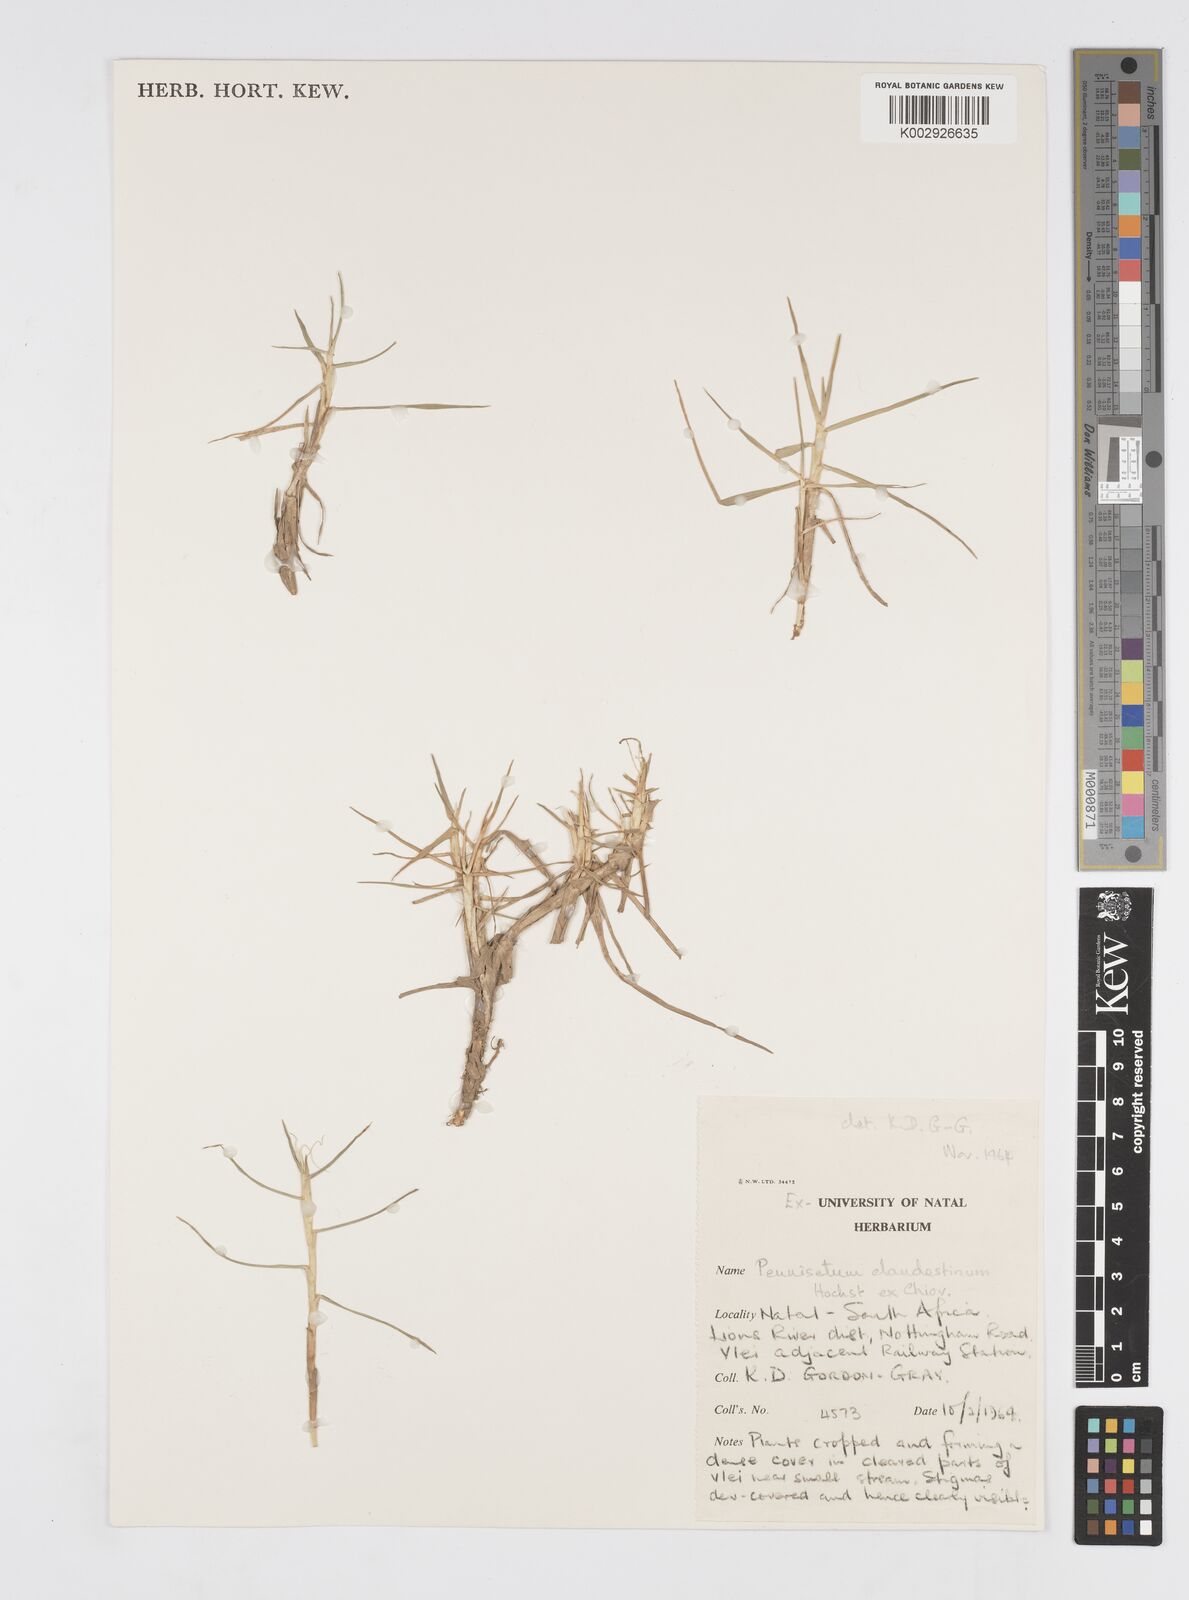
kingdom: Plantae
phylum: Tracheophyta
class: Liliopsida
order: Poales
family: Poaceae
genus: Cenchrus
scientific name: Cenchrus clandestinus
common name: Kikuyugrass
